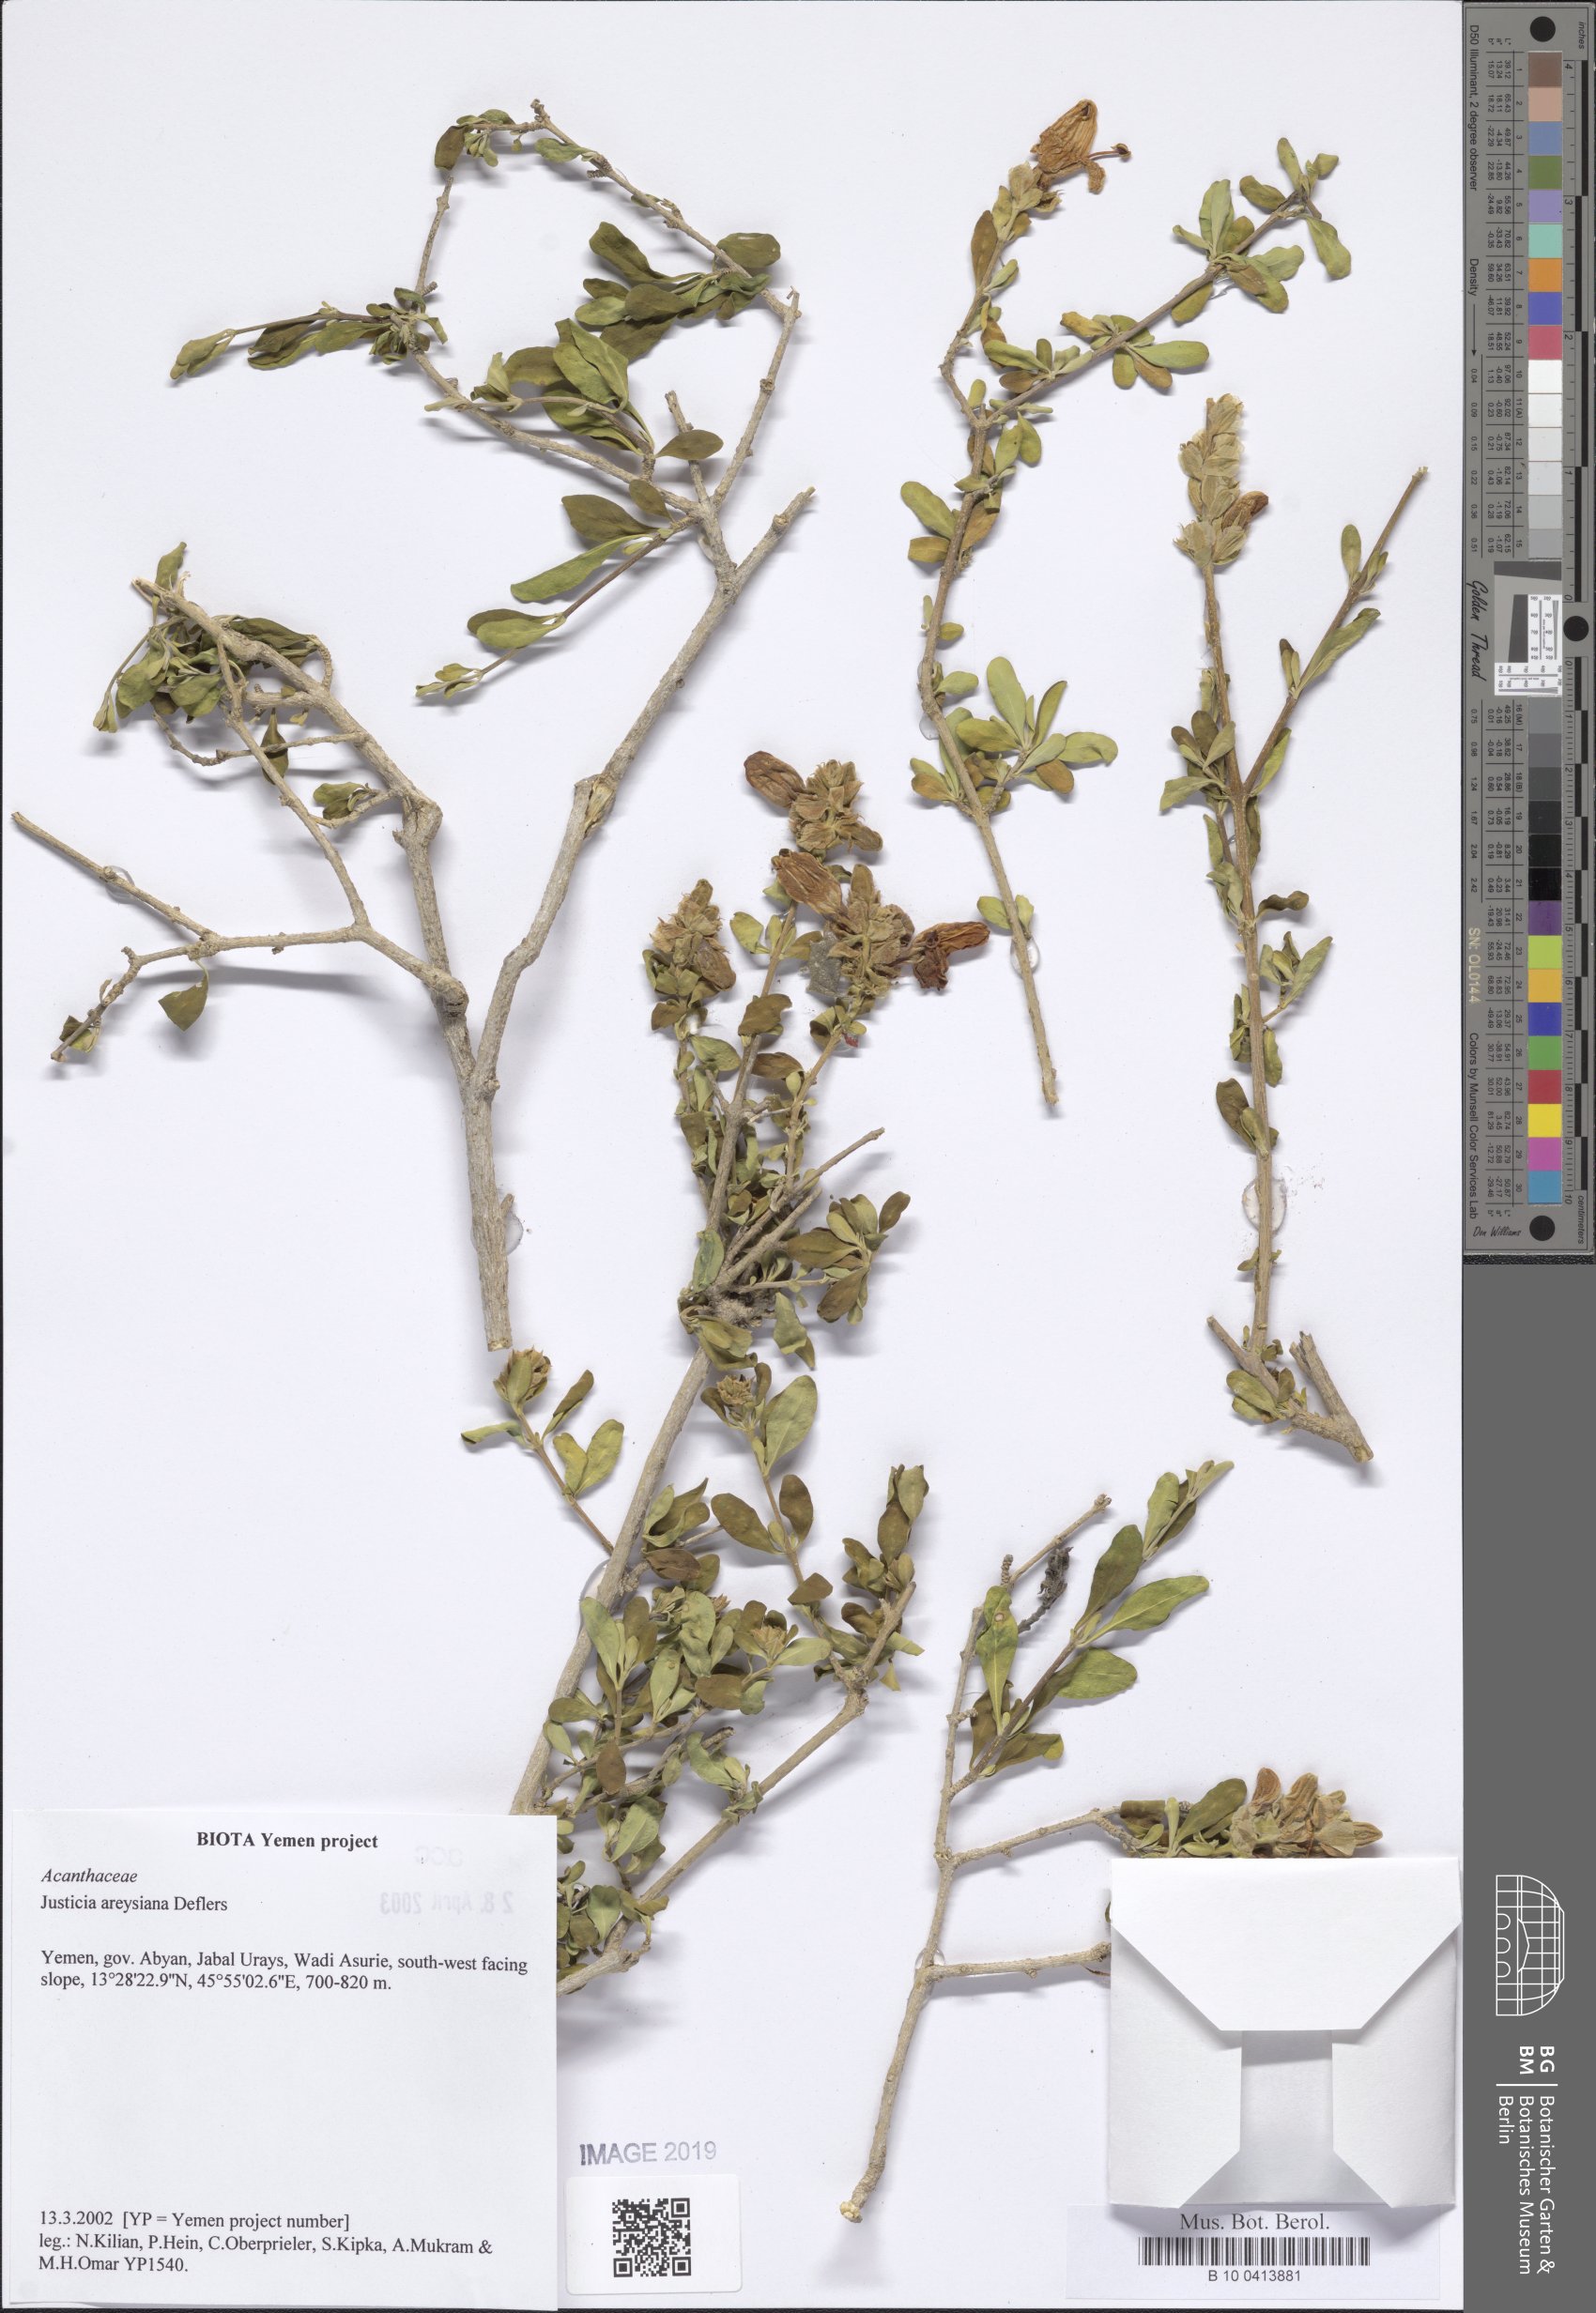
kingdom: Plantae
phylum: Tracheophyta
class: Magnoliopsida
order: Lamiales
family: Acanthaceae
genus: Justicia
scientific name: Justicia areysiana
